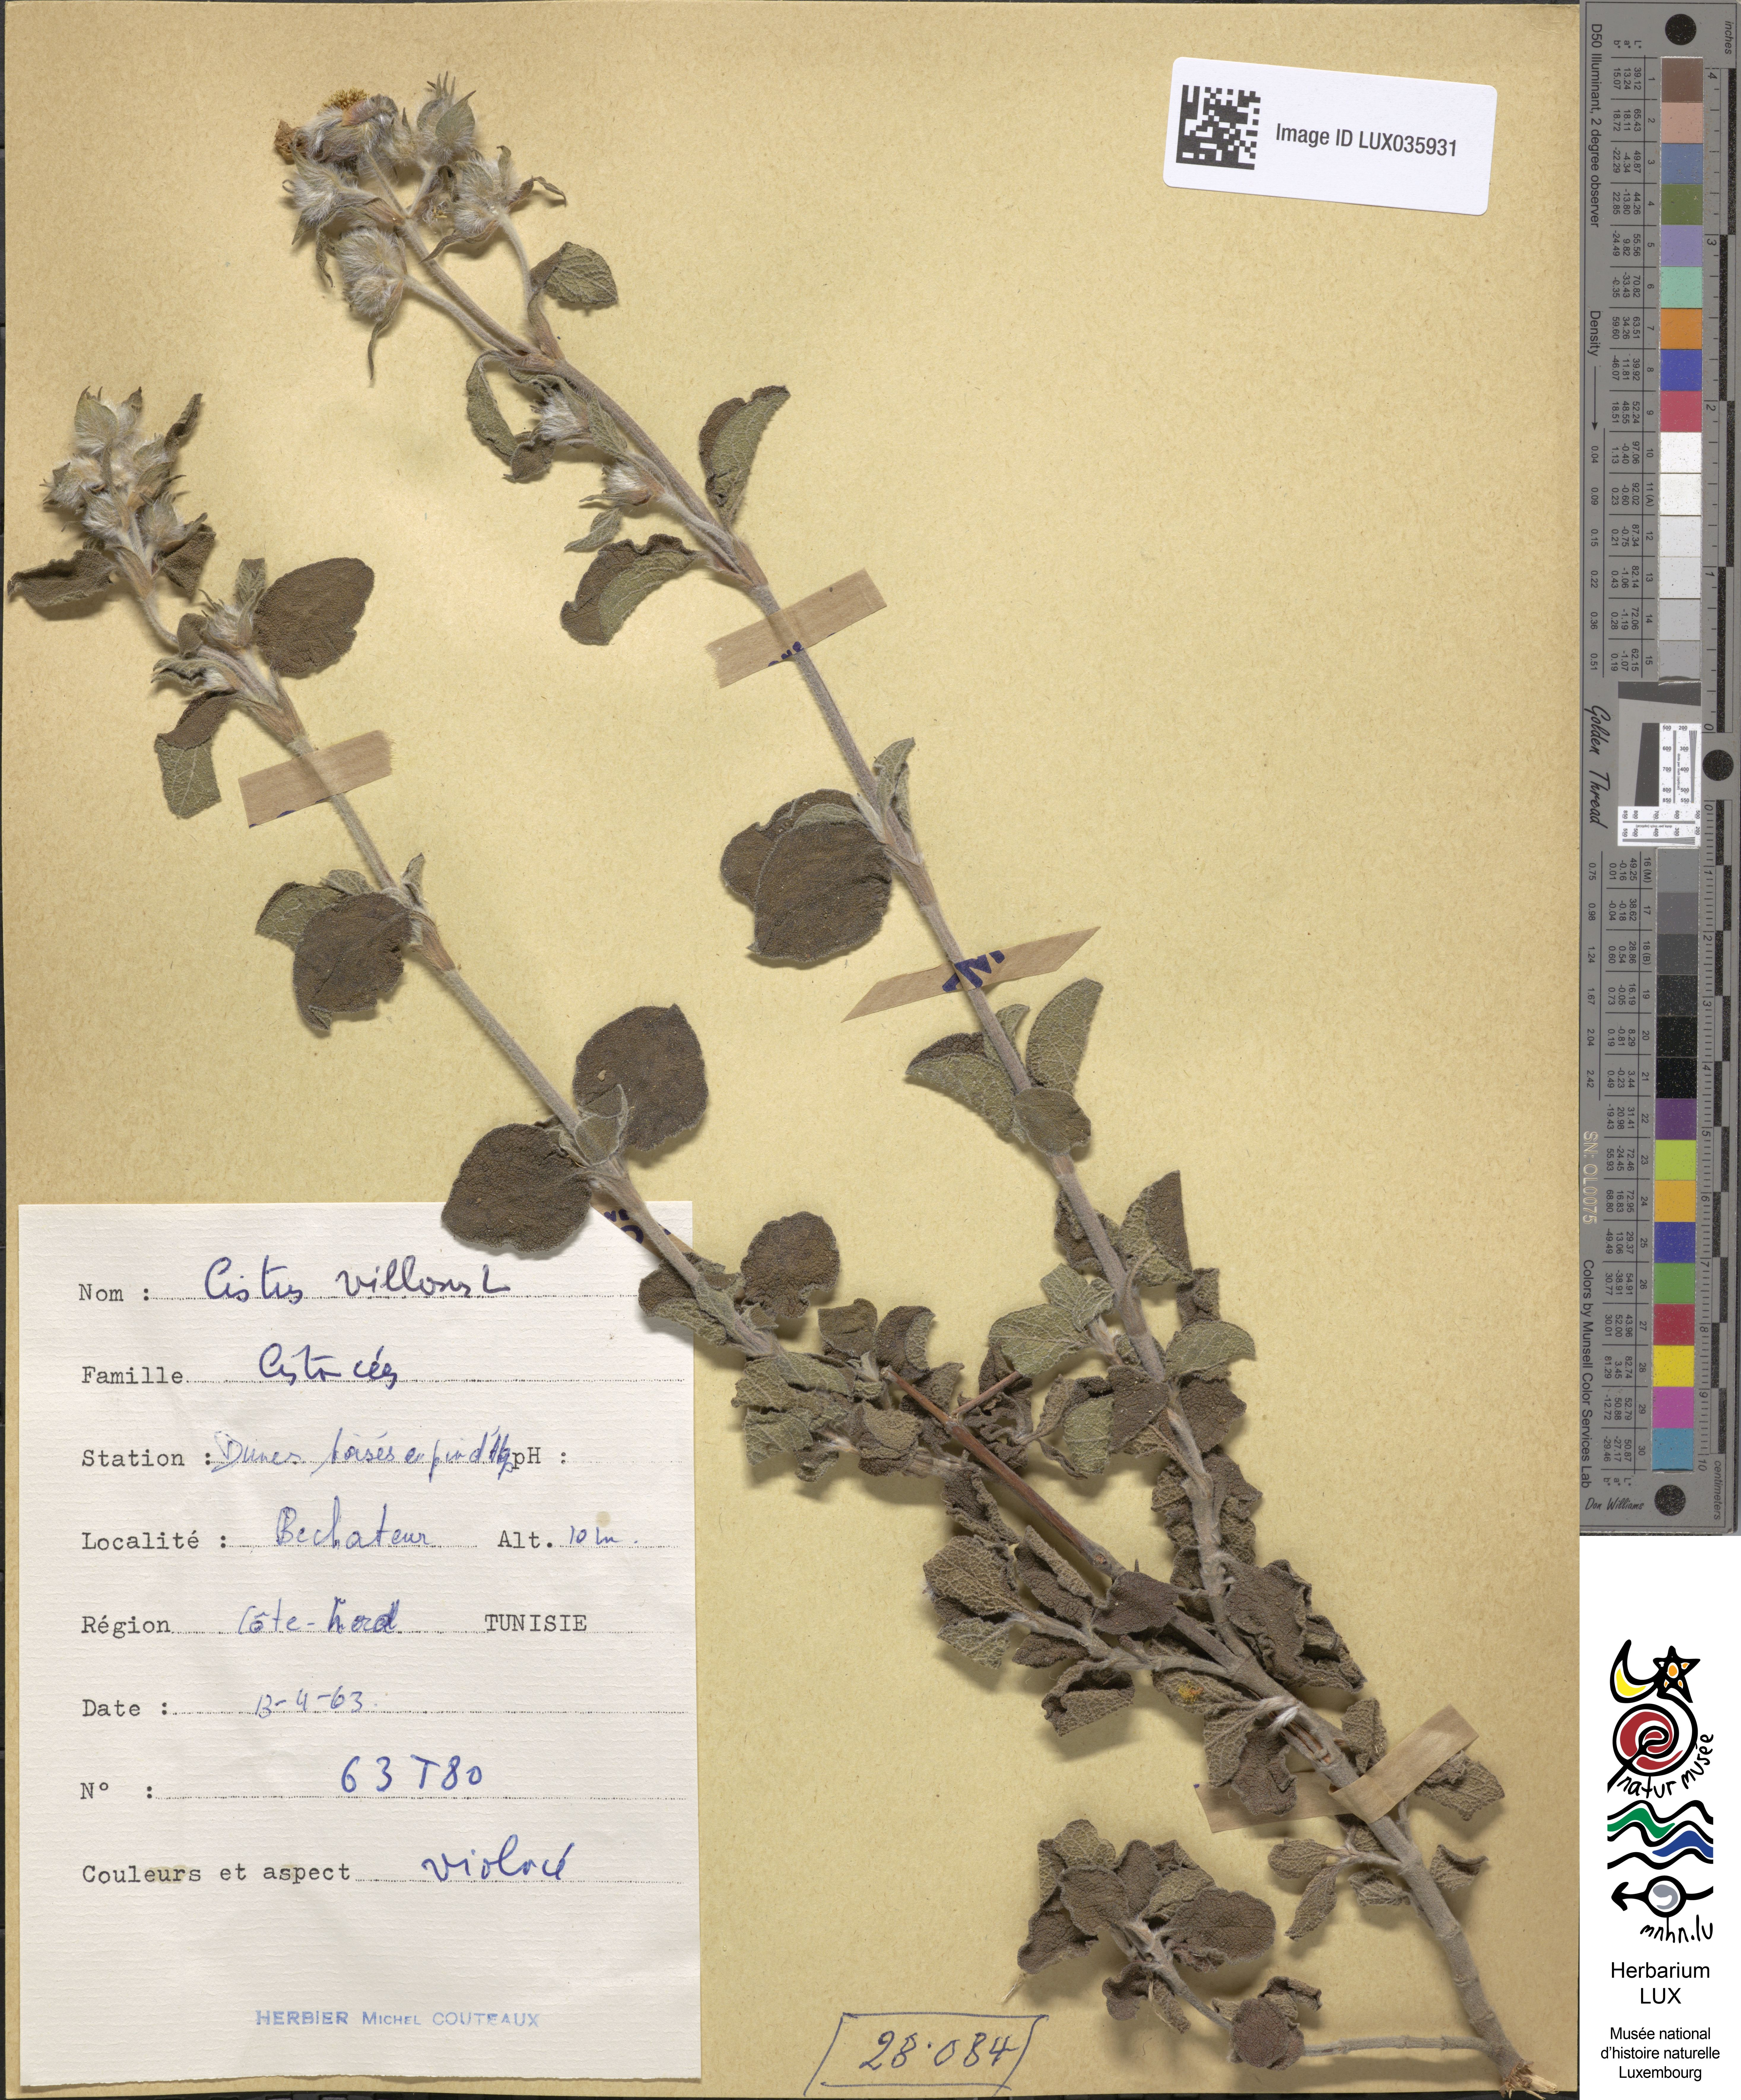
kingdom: Plantae
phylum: Tracheophyta
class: Magnoliopsida
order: Malvales
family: Cistaceae
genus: Cistus
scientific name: Cistus incanus
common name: Hairy rockrose
